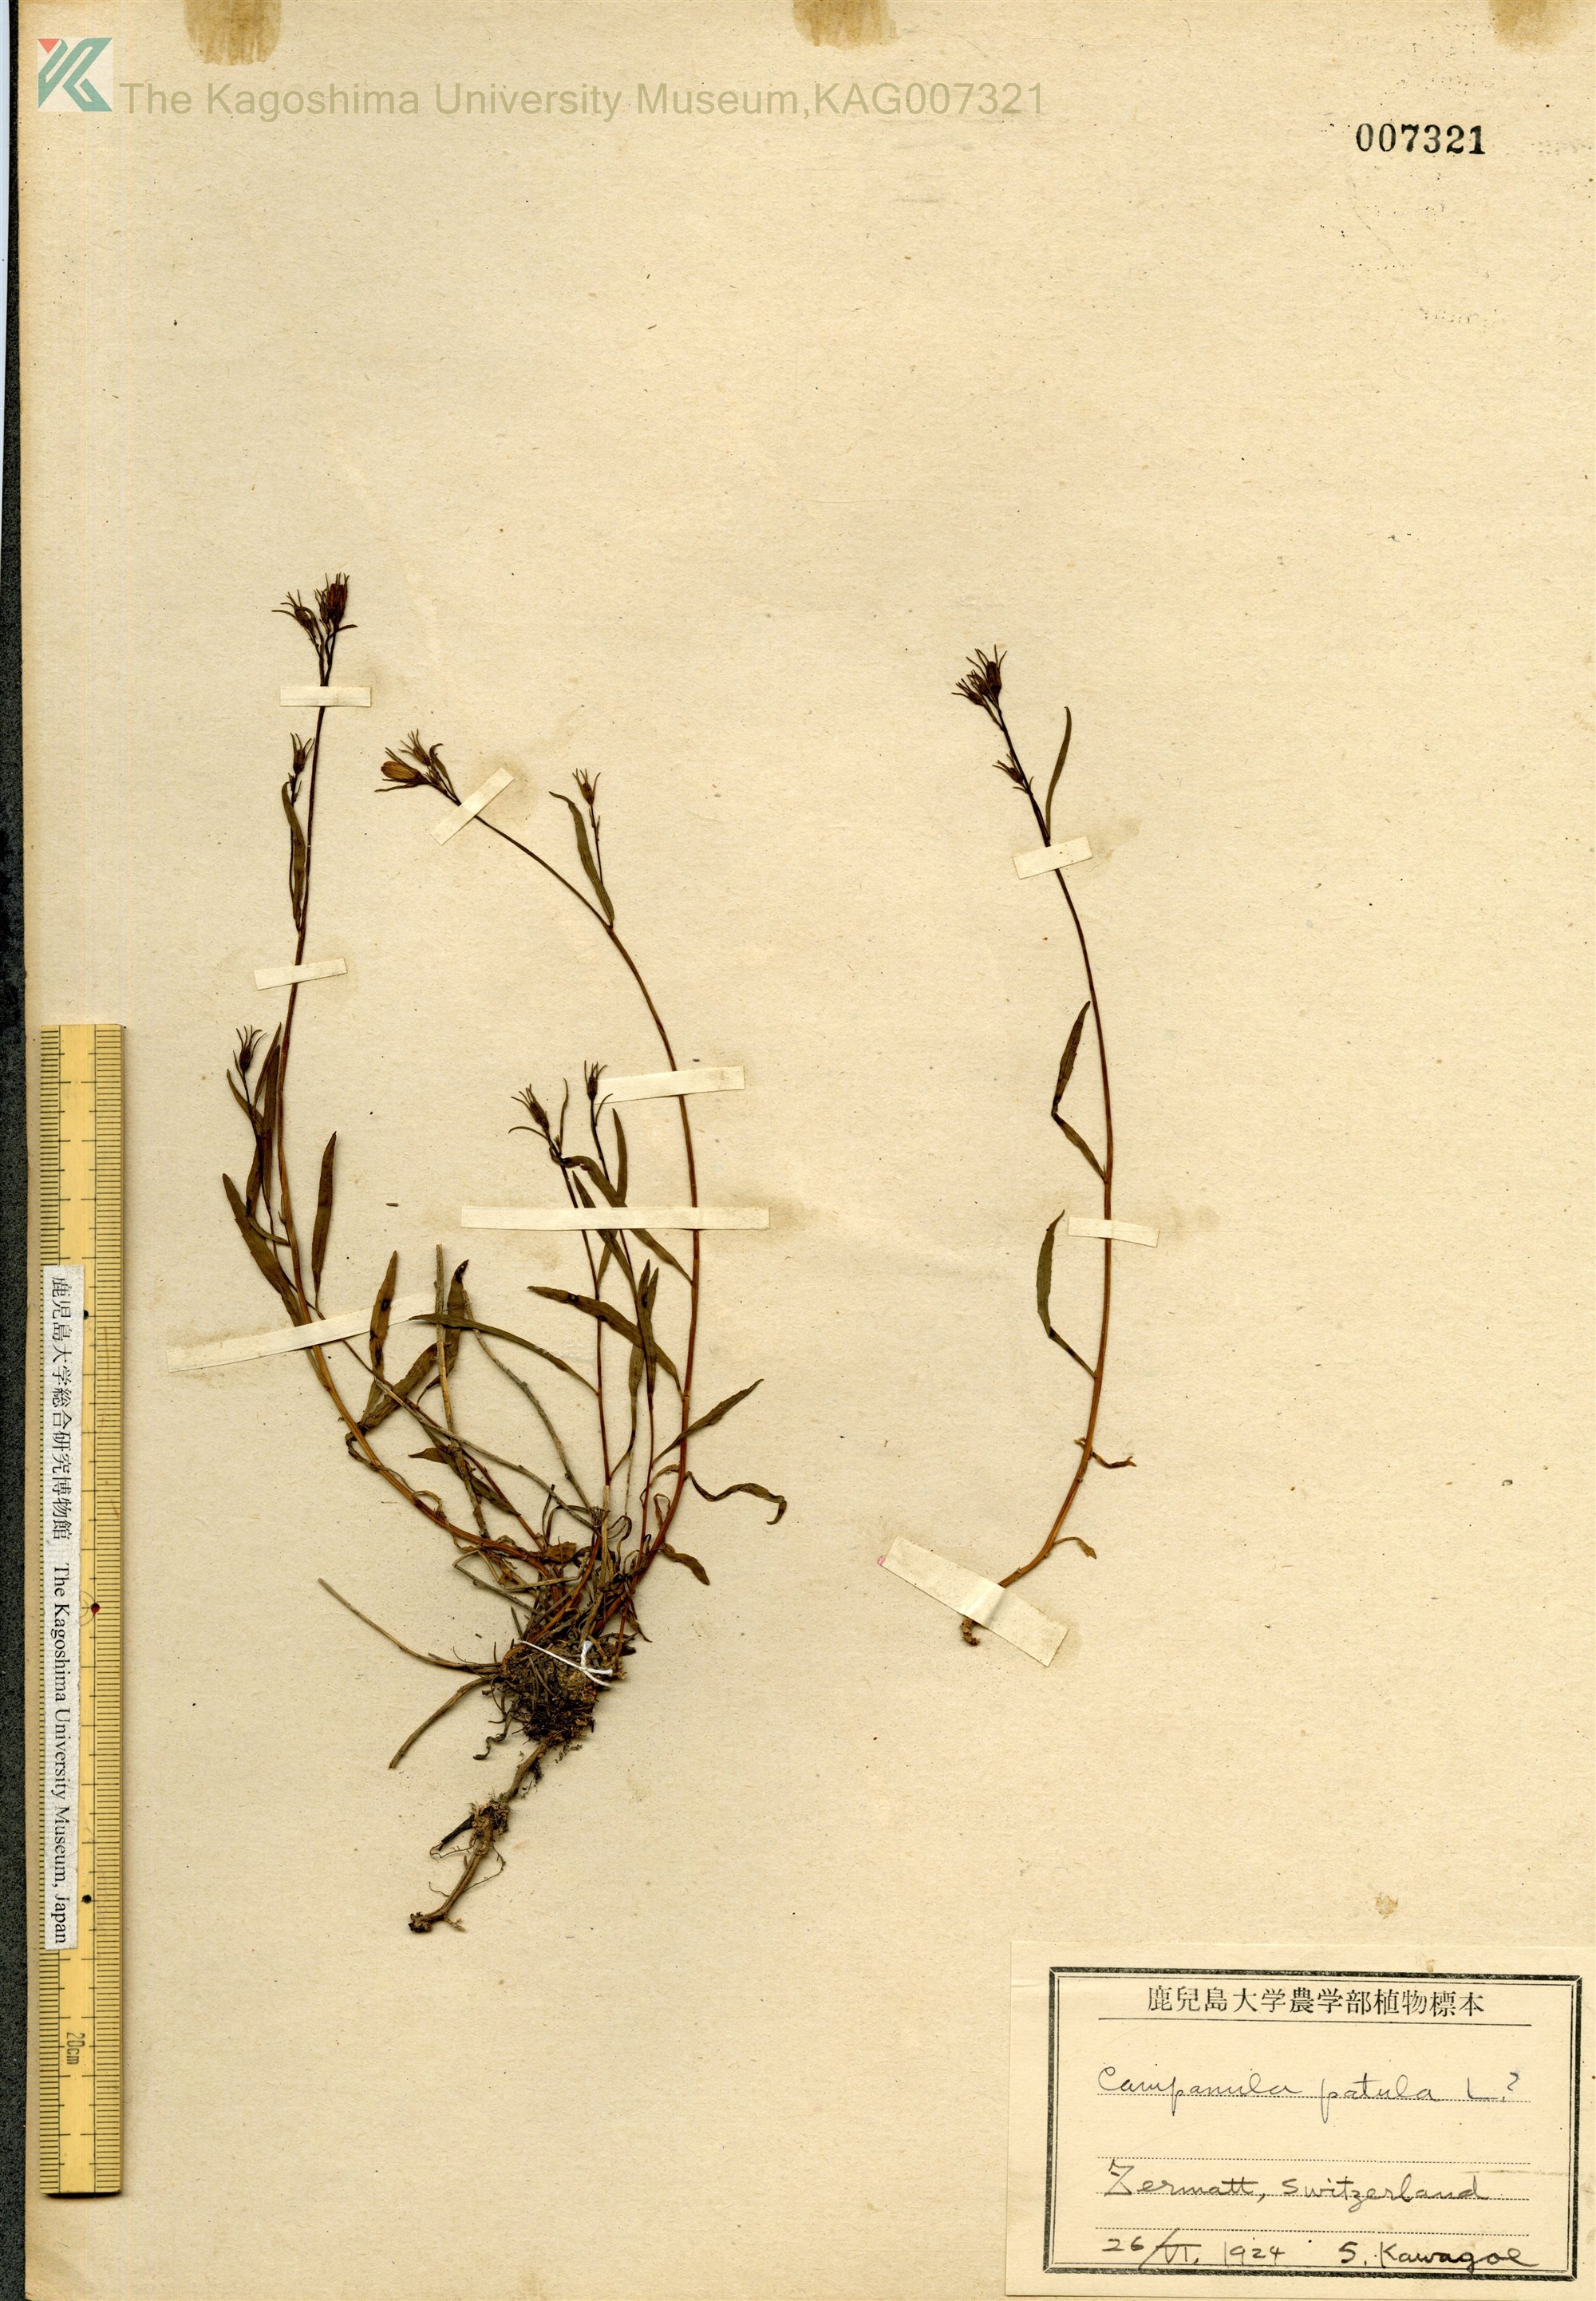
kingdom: Plantae
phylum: Tracheophyta
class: Magnoliopsida
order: Asterales
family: Campanulaceae
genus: Campanula
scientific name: Campanula patula
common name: Spreading bellflower
